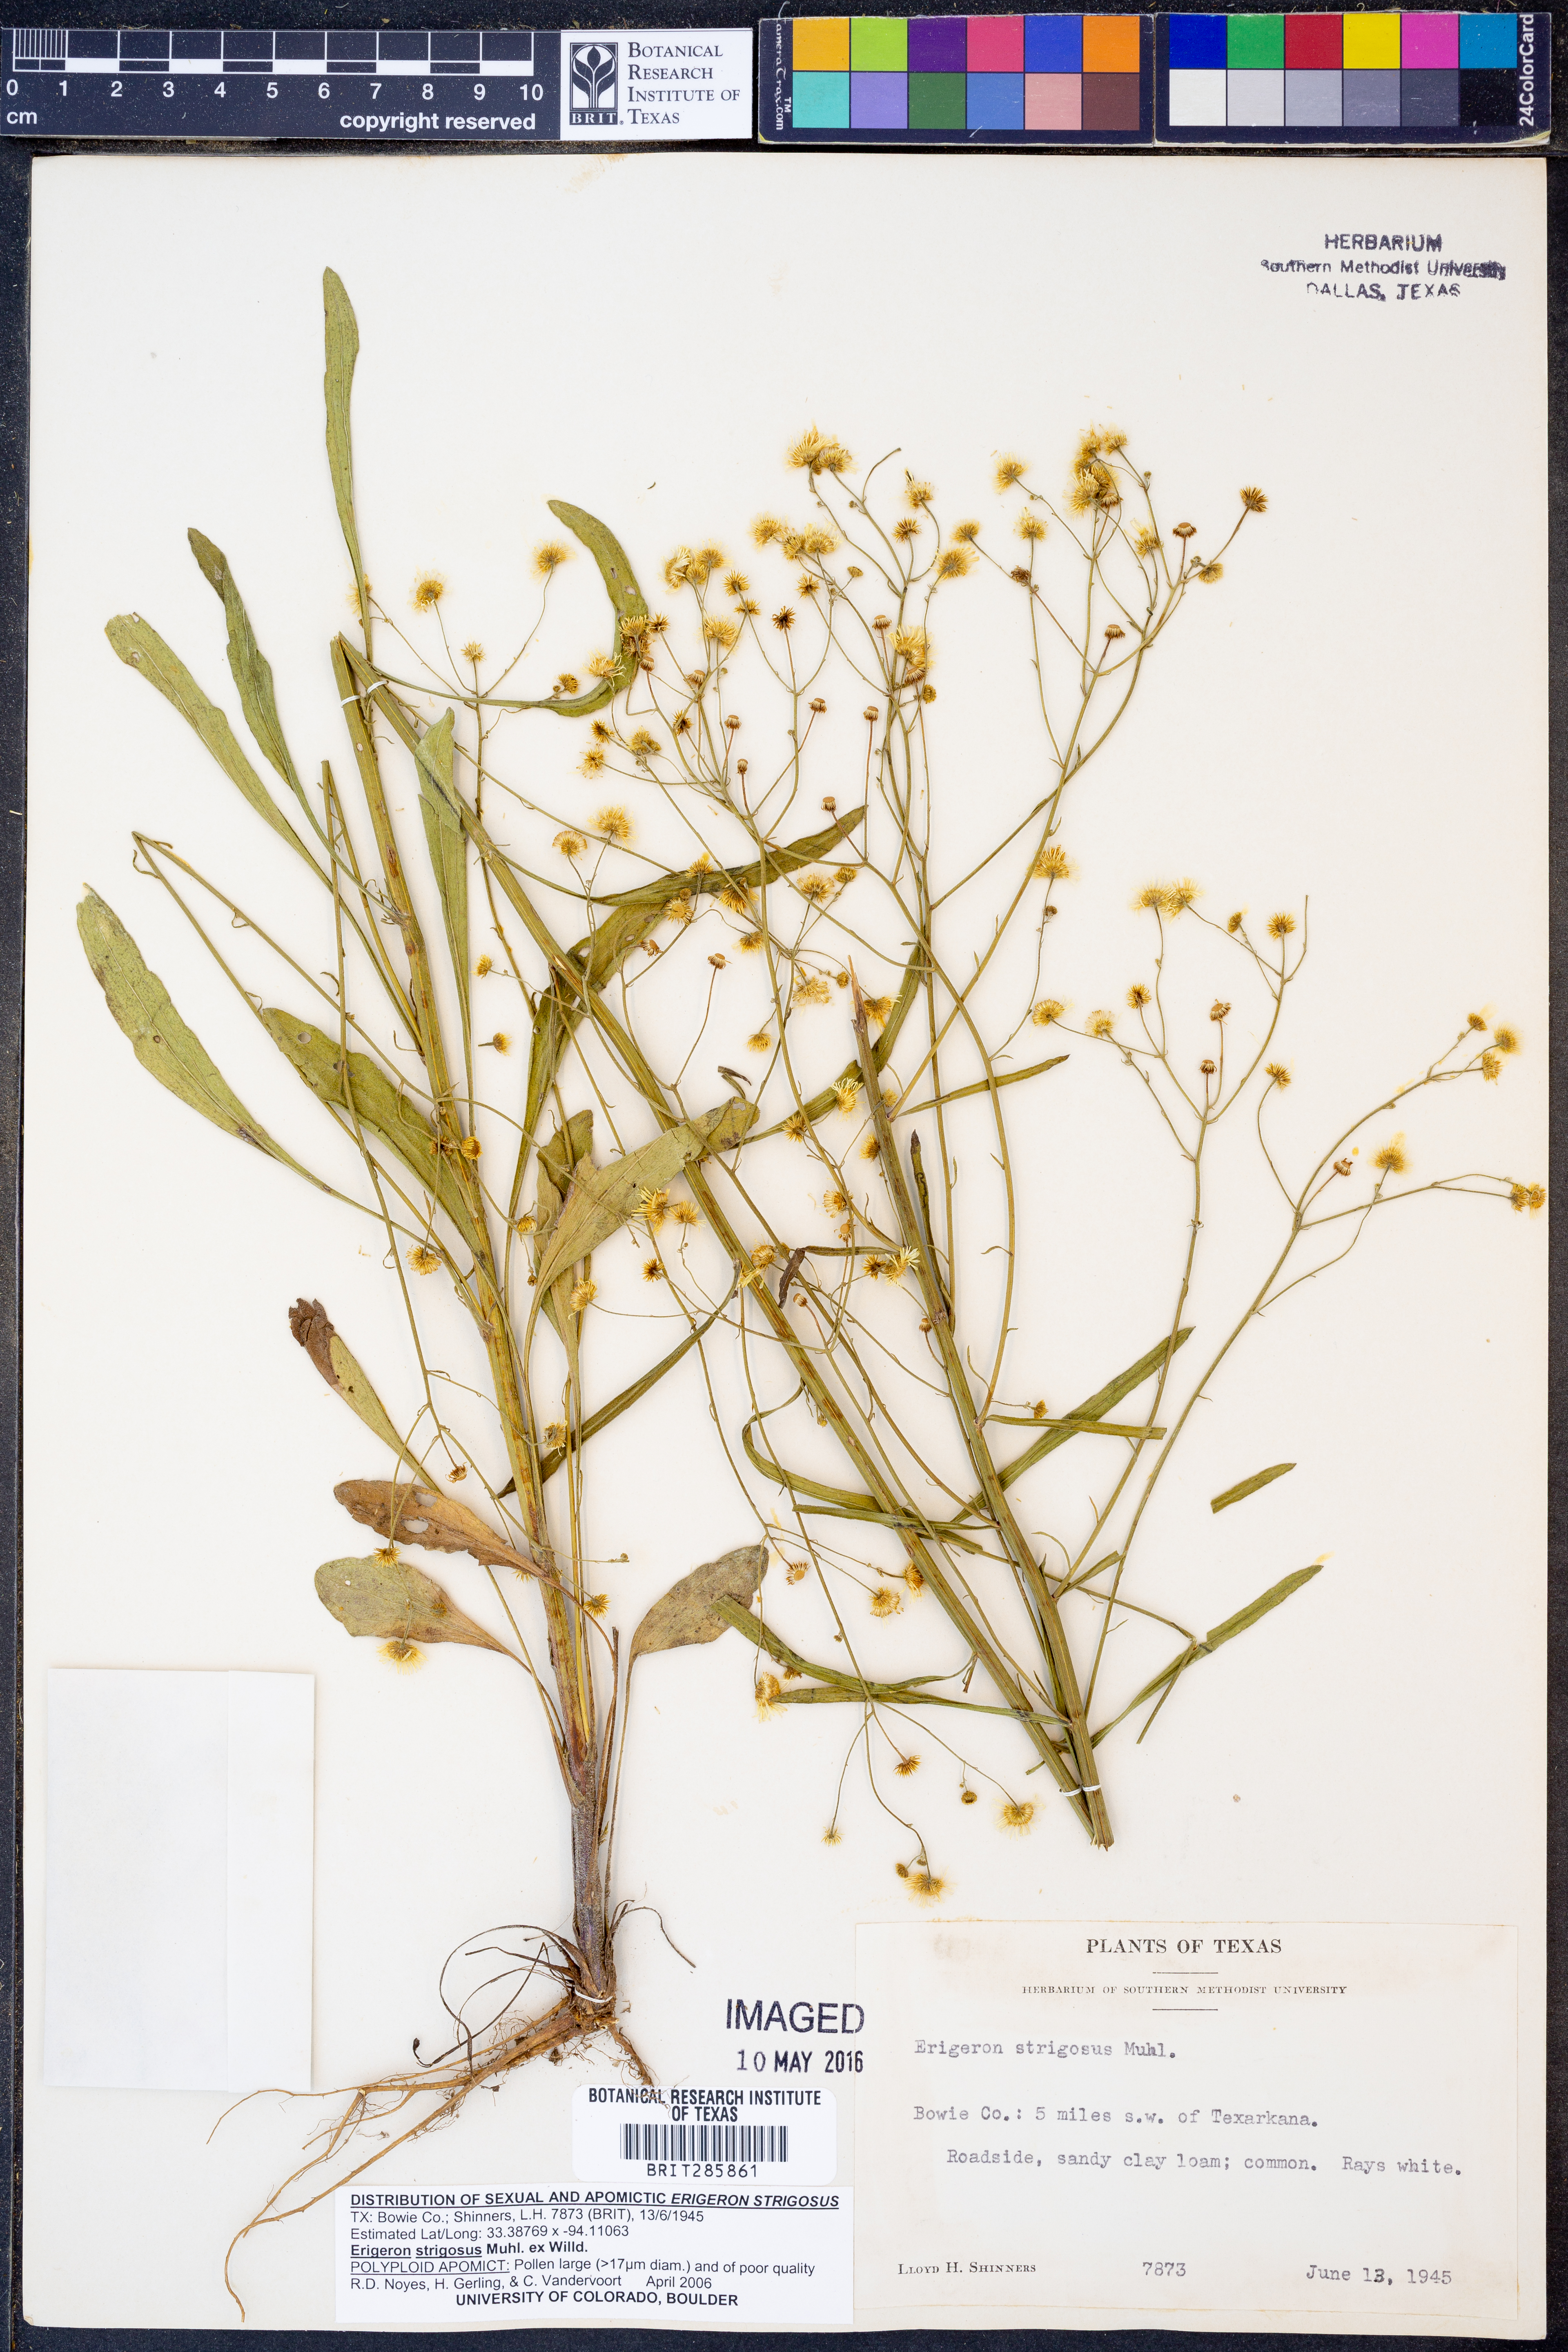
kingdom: Plantae
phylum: Tracheophyta
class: Magnoliopsida
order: Asterales
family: Asteraceae
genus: Erigeron
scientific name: Erigeron strigosus
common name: Common eastern fleabane
